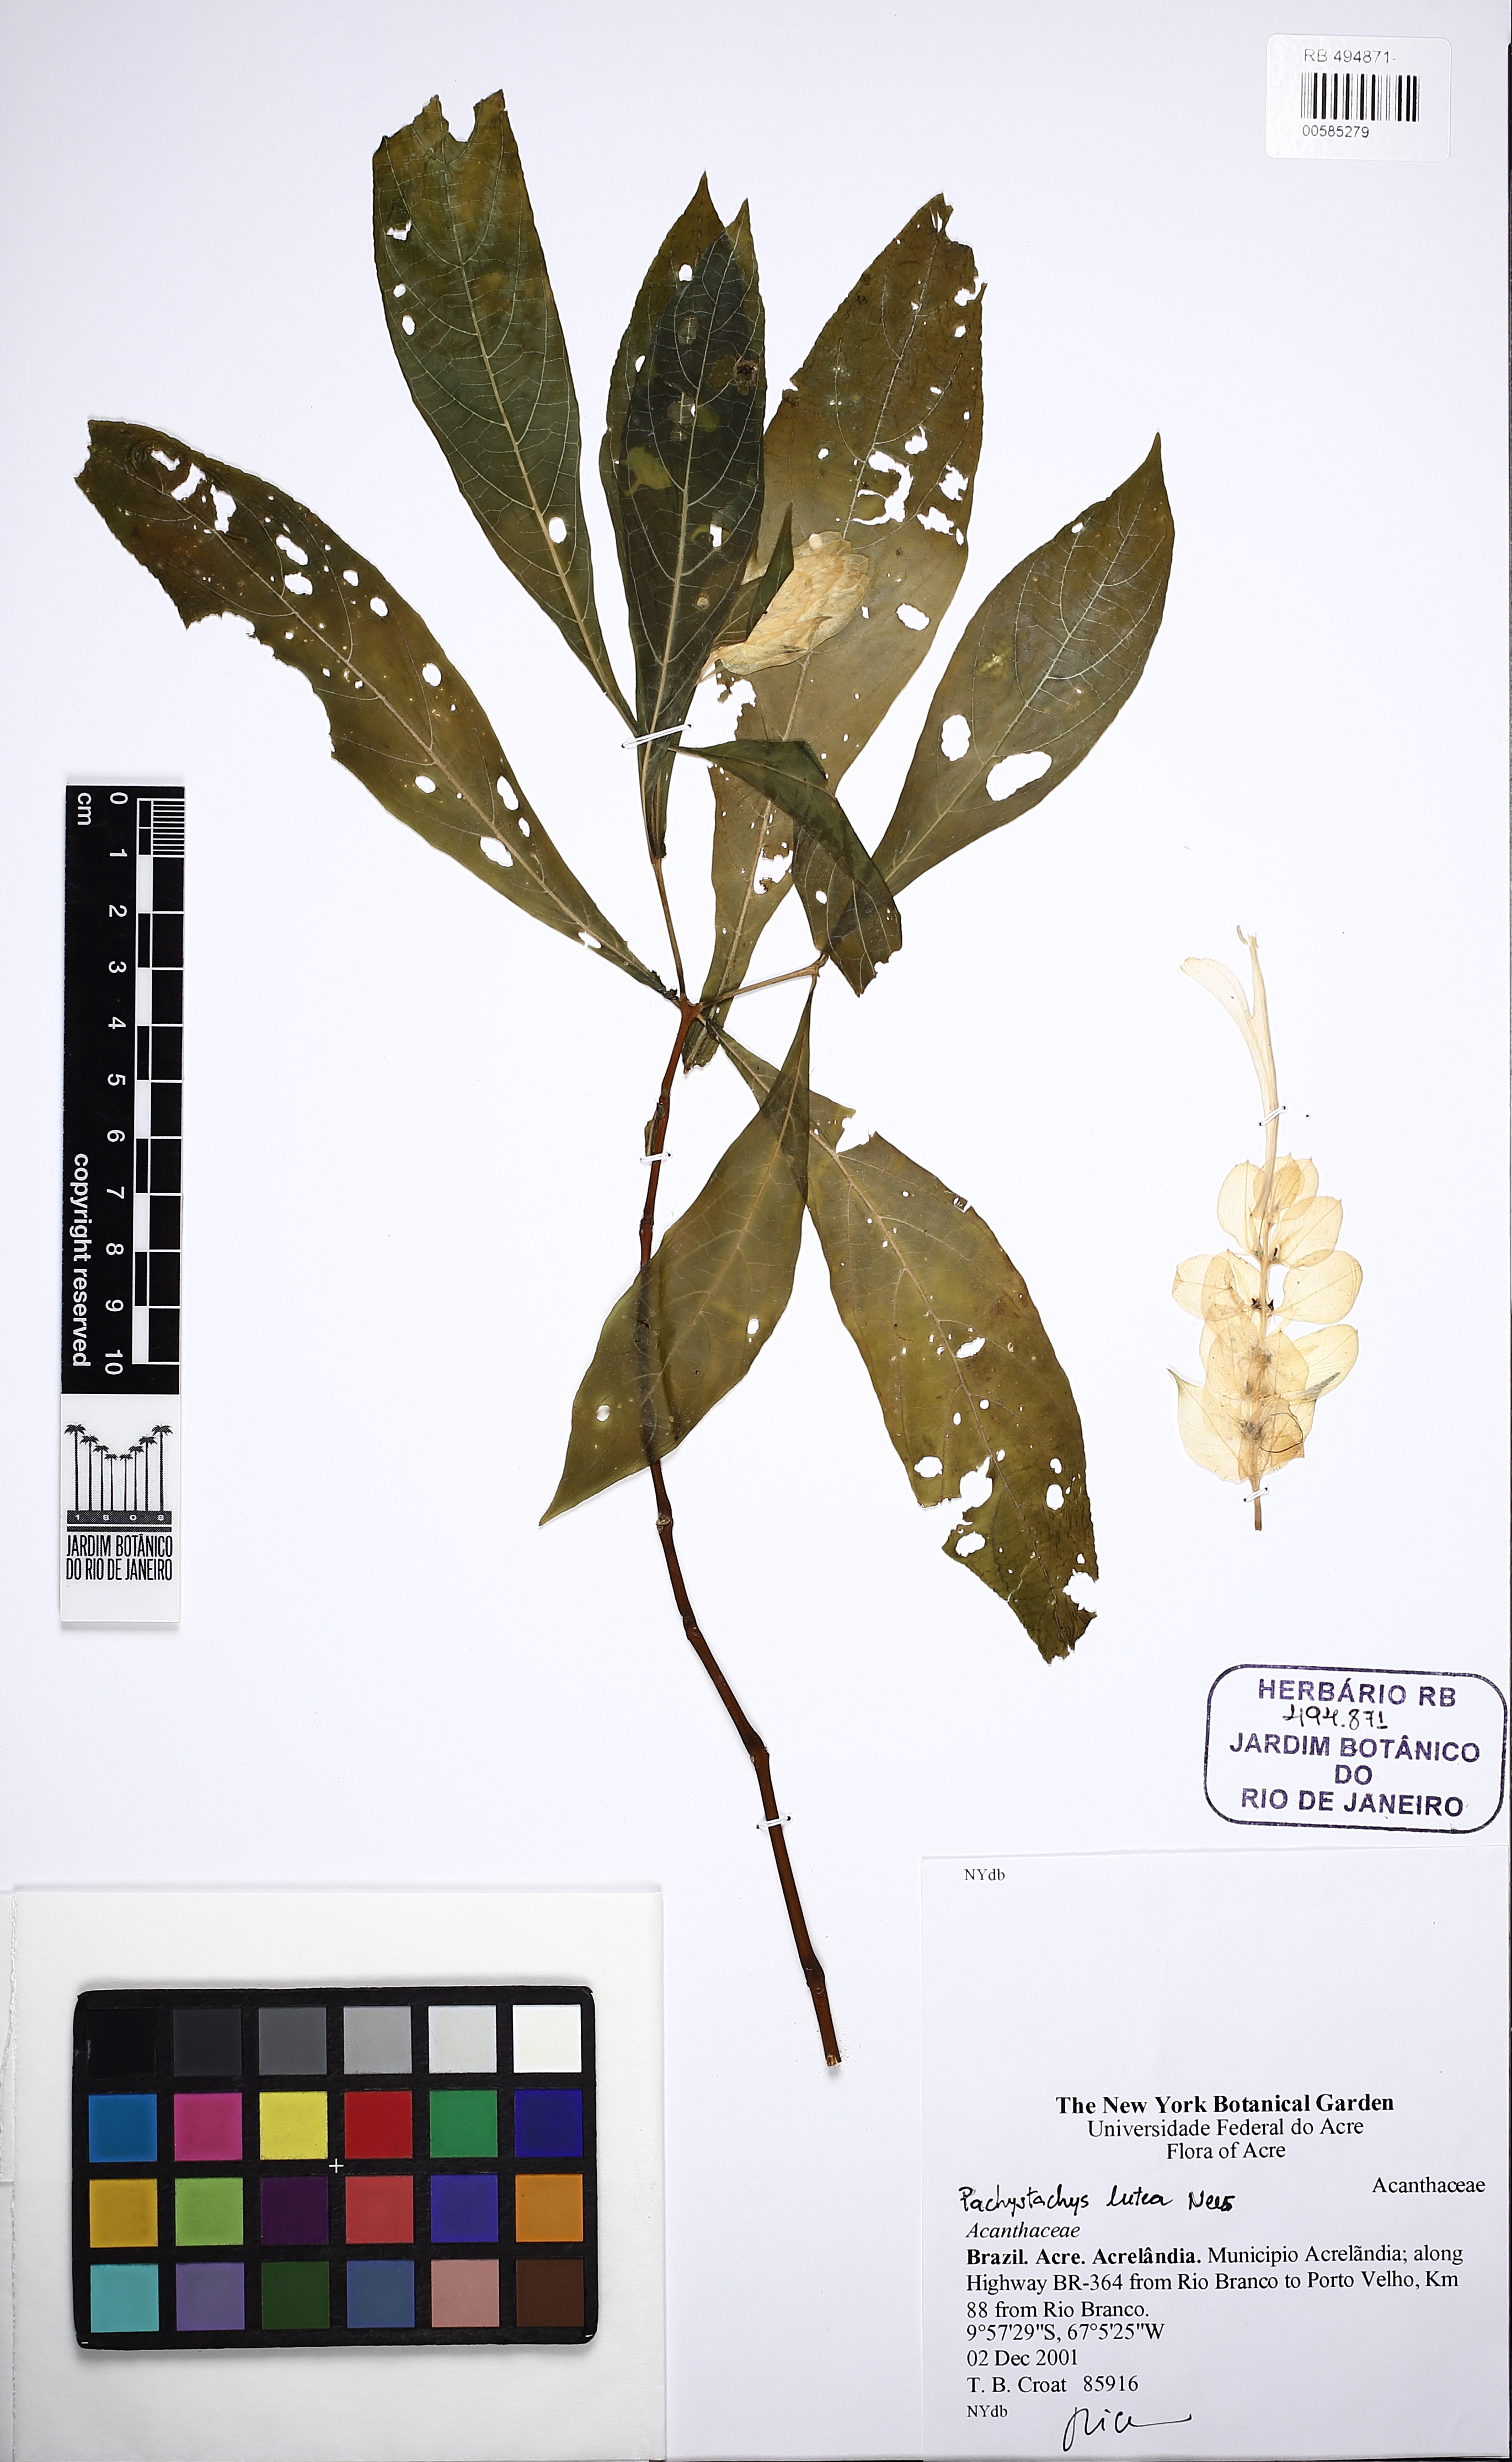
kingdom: Plantae
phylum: Tracheophyta
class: Magnoliopsida
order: Lamiales
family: Acanthaceae
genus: Pachystachys
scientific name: Pachystachys lutea
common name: Golden shrimp-plant
